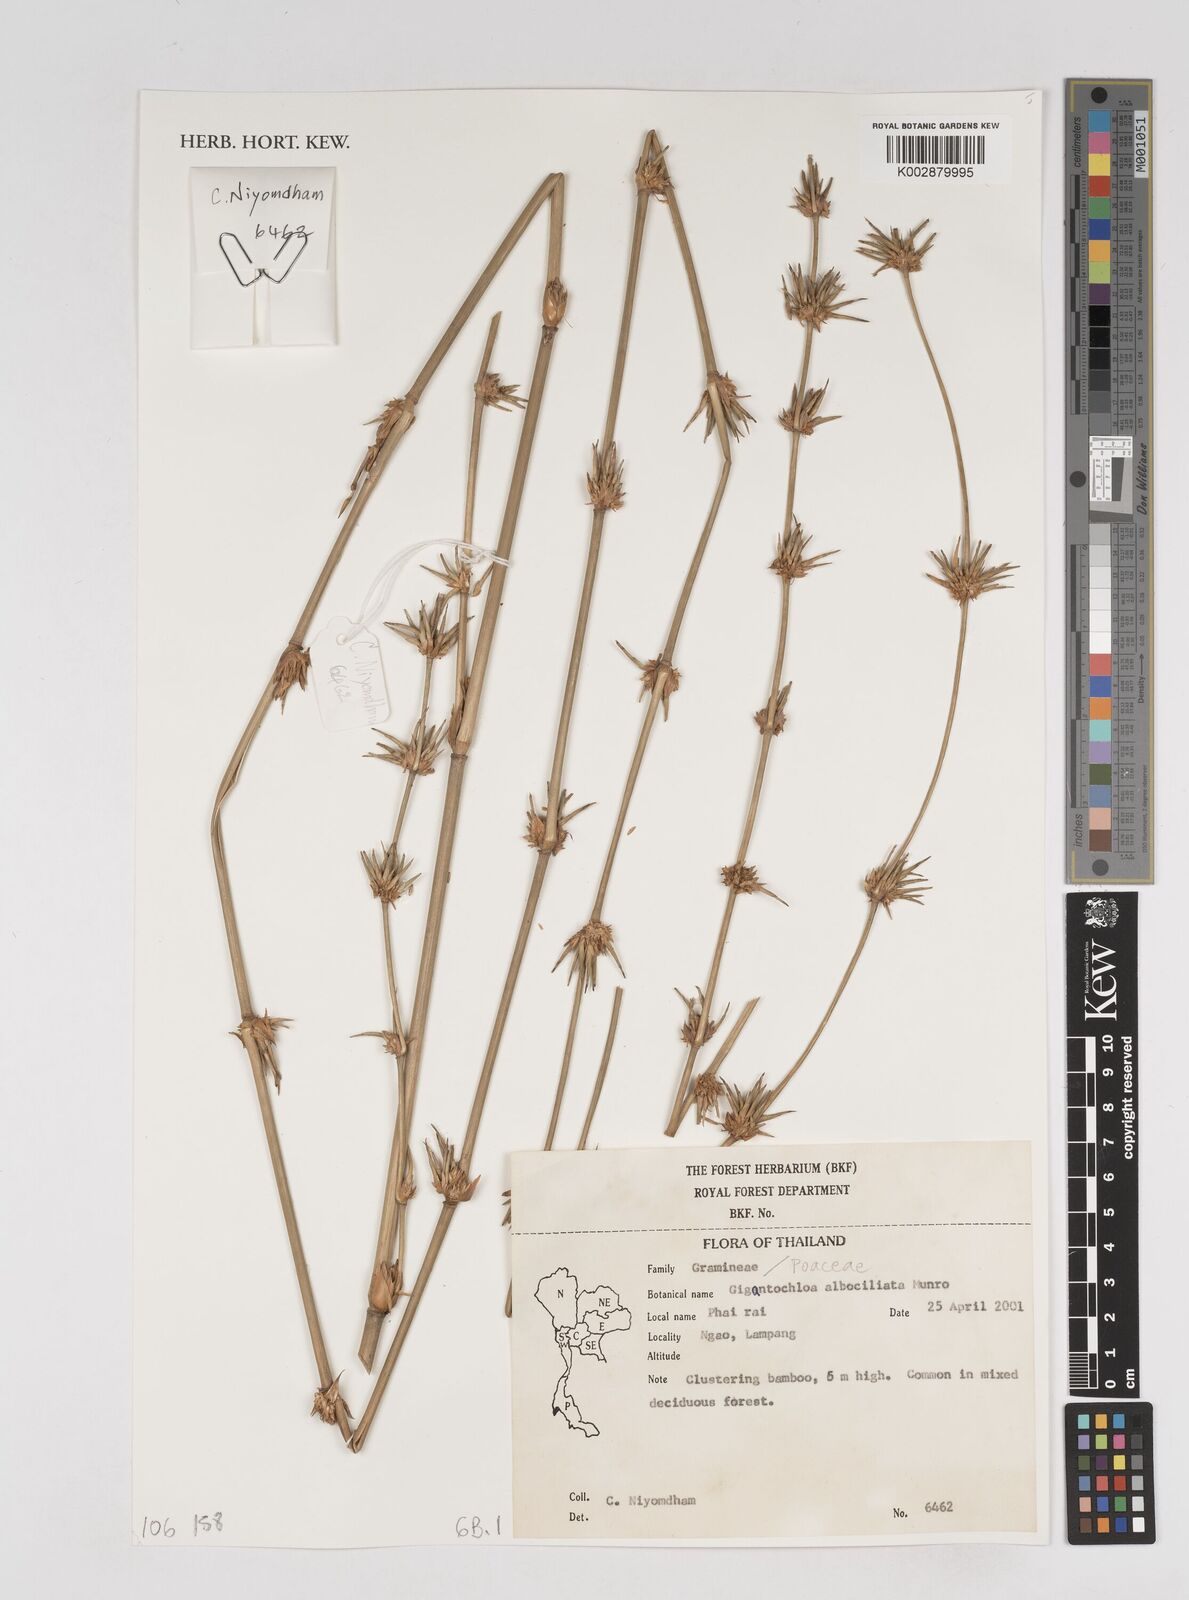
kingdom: Plantae
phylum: Tracheophyta
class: Liliopsida
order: Poales
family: Poaceae
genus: Gigantochloa
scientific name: Gigantochloa albociliata
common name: White-fringe gigantochloa
